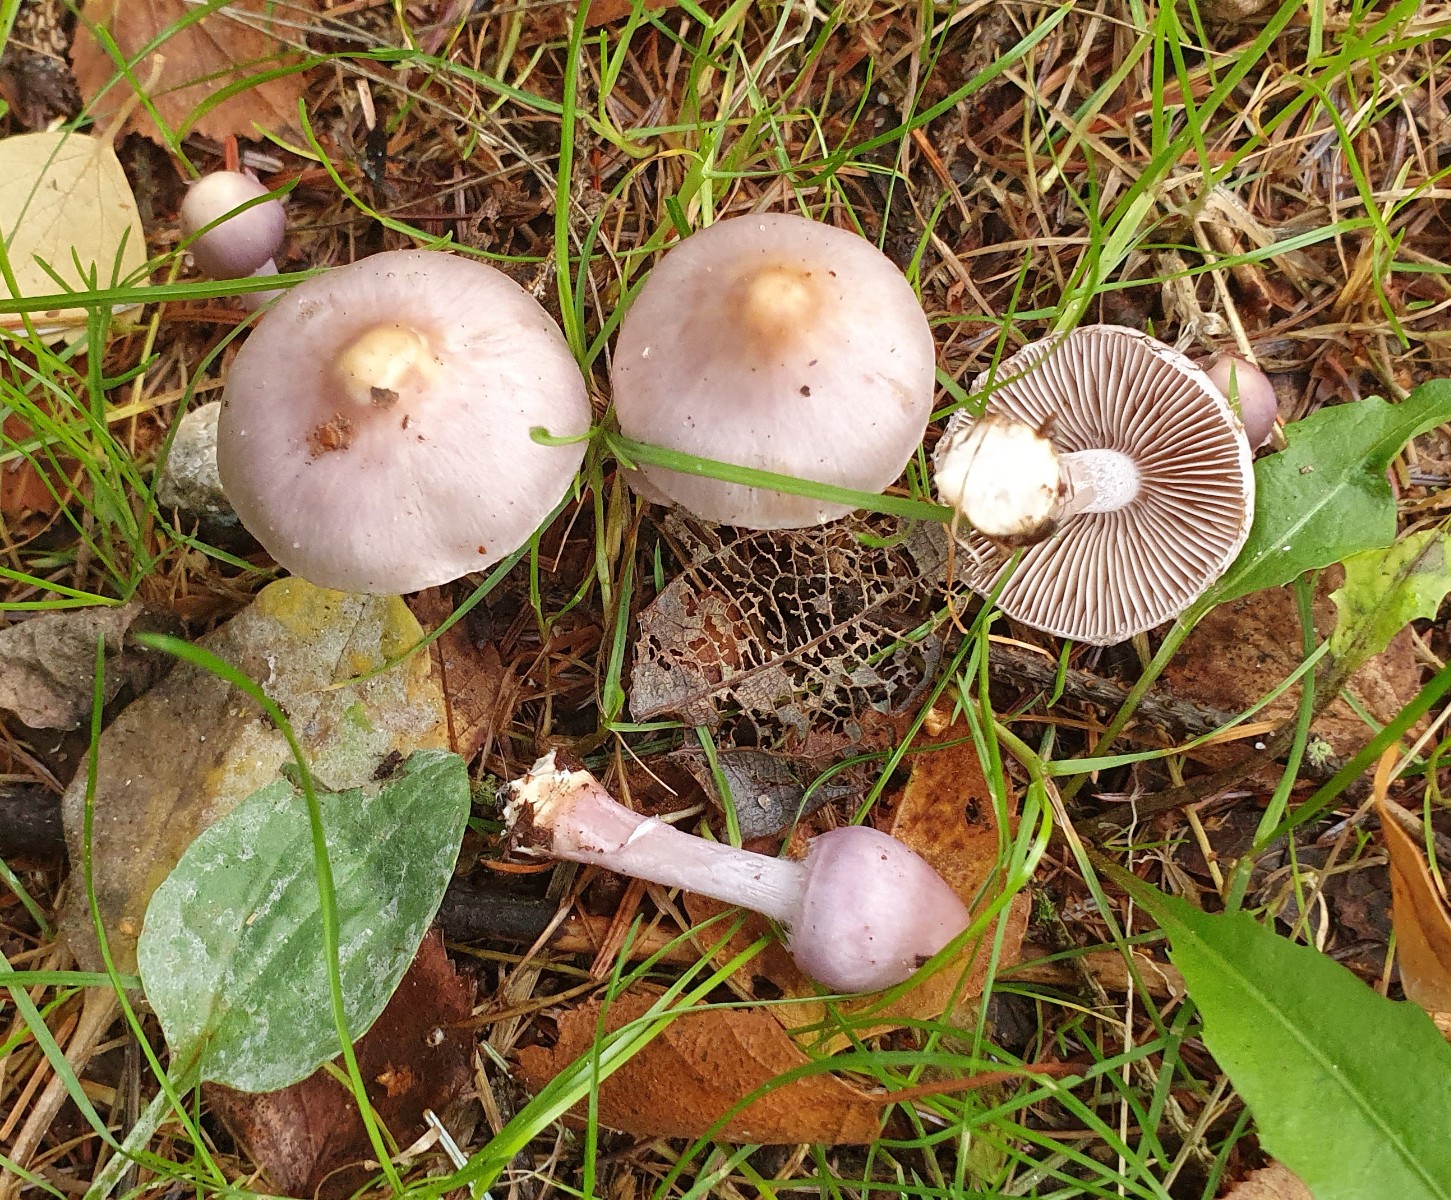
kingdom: Fungi
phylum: Basidiomycota
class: Agaricomycetes
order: Agaricales
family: Inocybaceae
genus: Inocybe
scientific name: Inocybe geophylla
